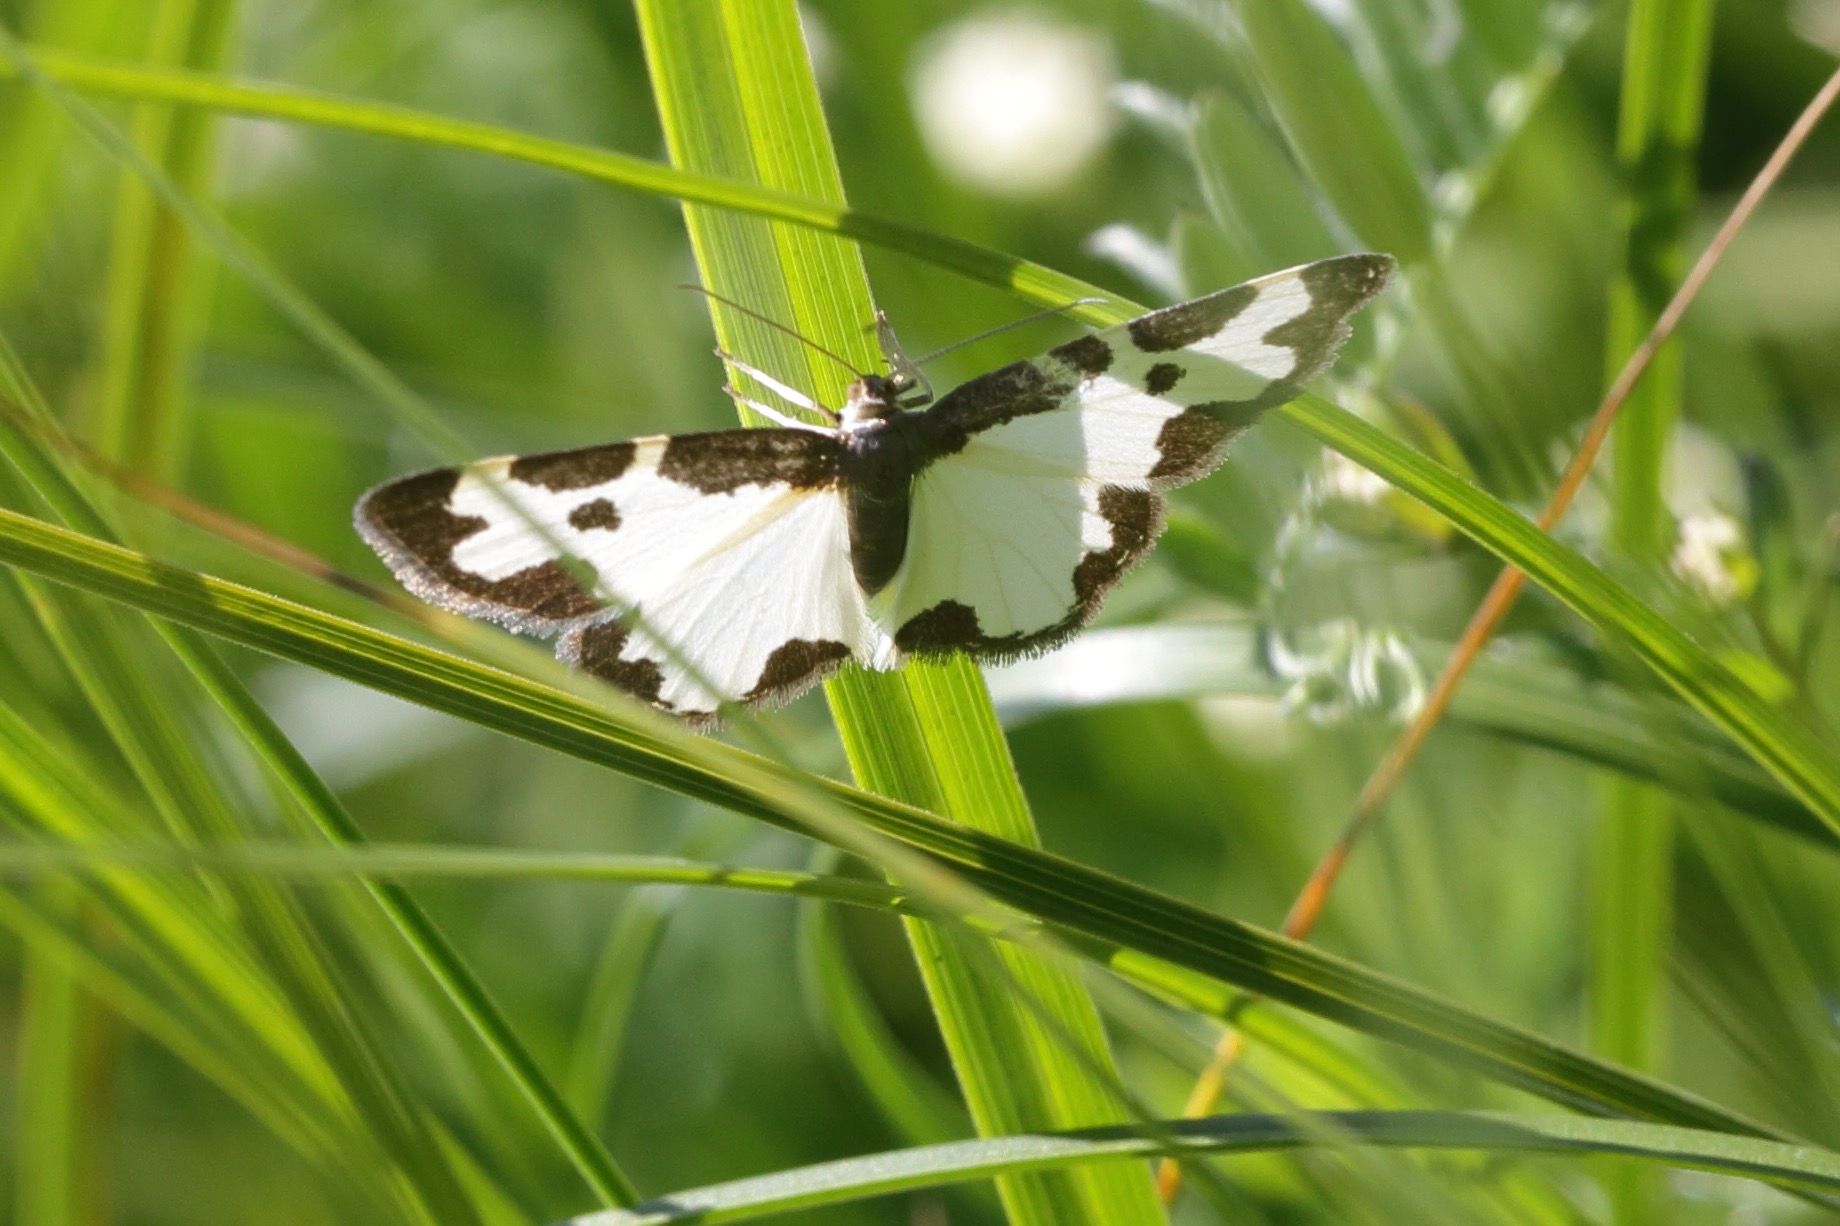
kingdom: Animalia
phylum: Arthropoda
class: Insecta
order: Lepidoptera
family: Geometridae
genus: Lomaspilis
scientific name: Lomaspilis marginata
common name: Sortrandet måler
